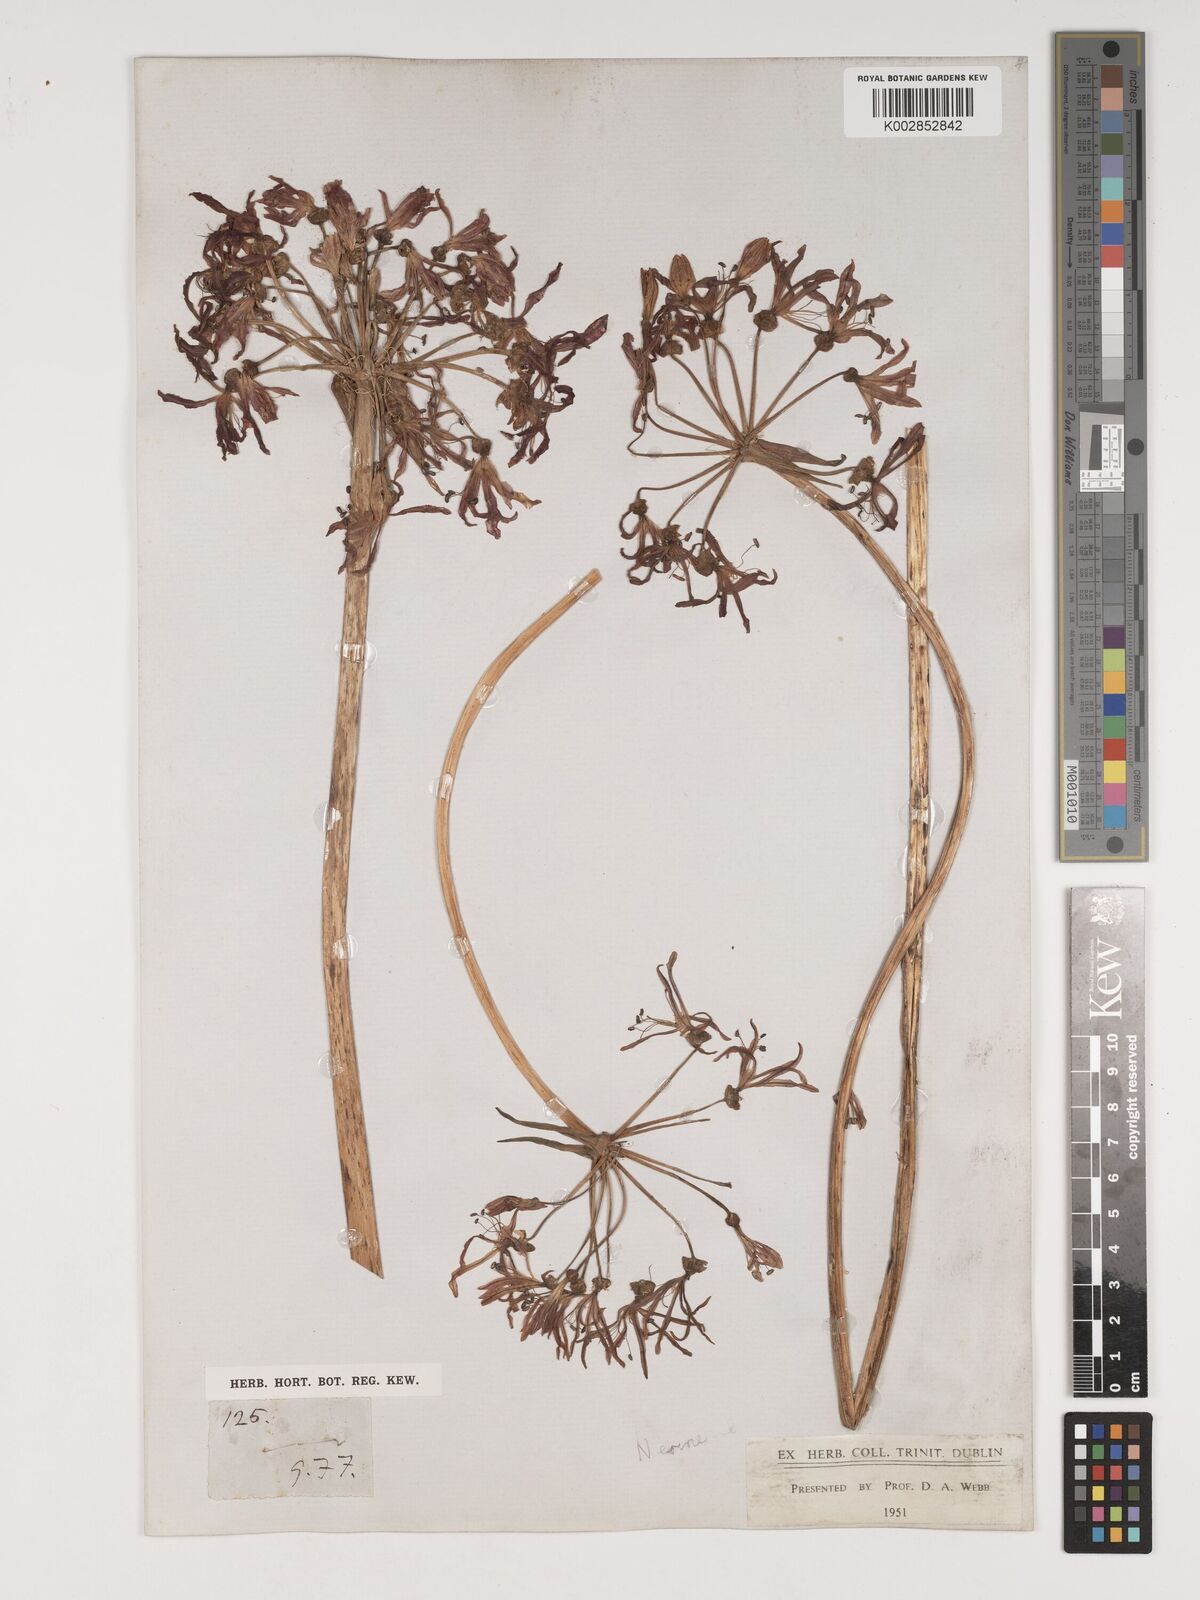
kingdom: Plantae
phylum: Tracheophyta
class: Liliopsida
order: Asparagales
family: Amaryllidaceae
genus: Nerine
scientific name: Nerine
